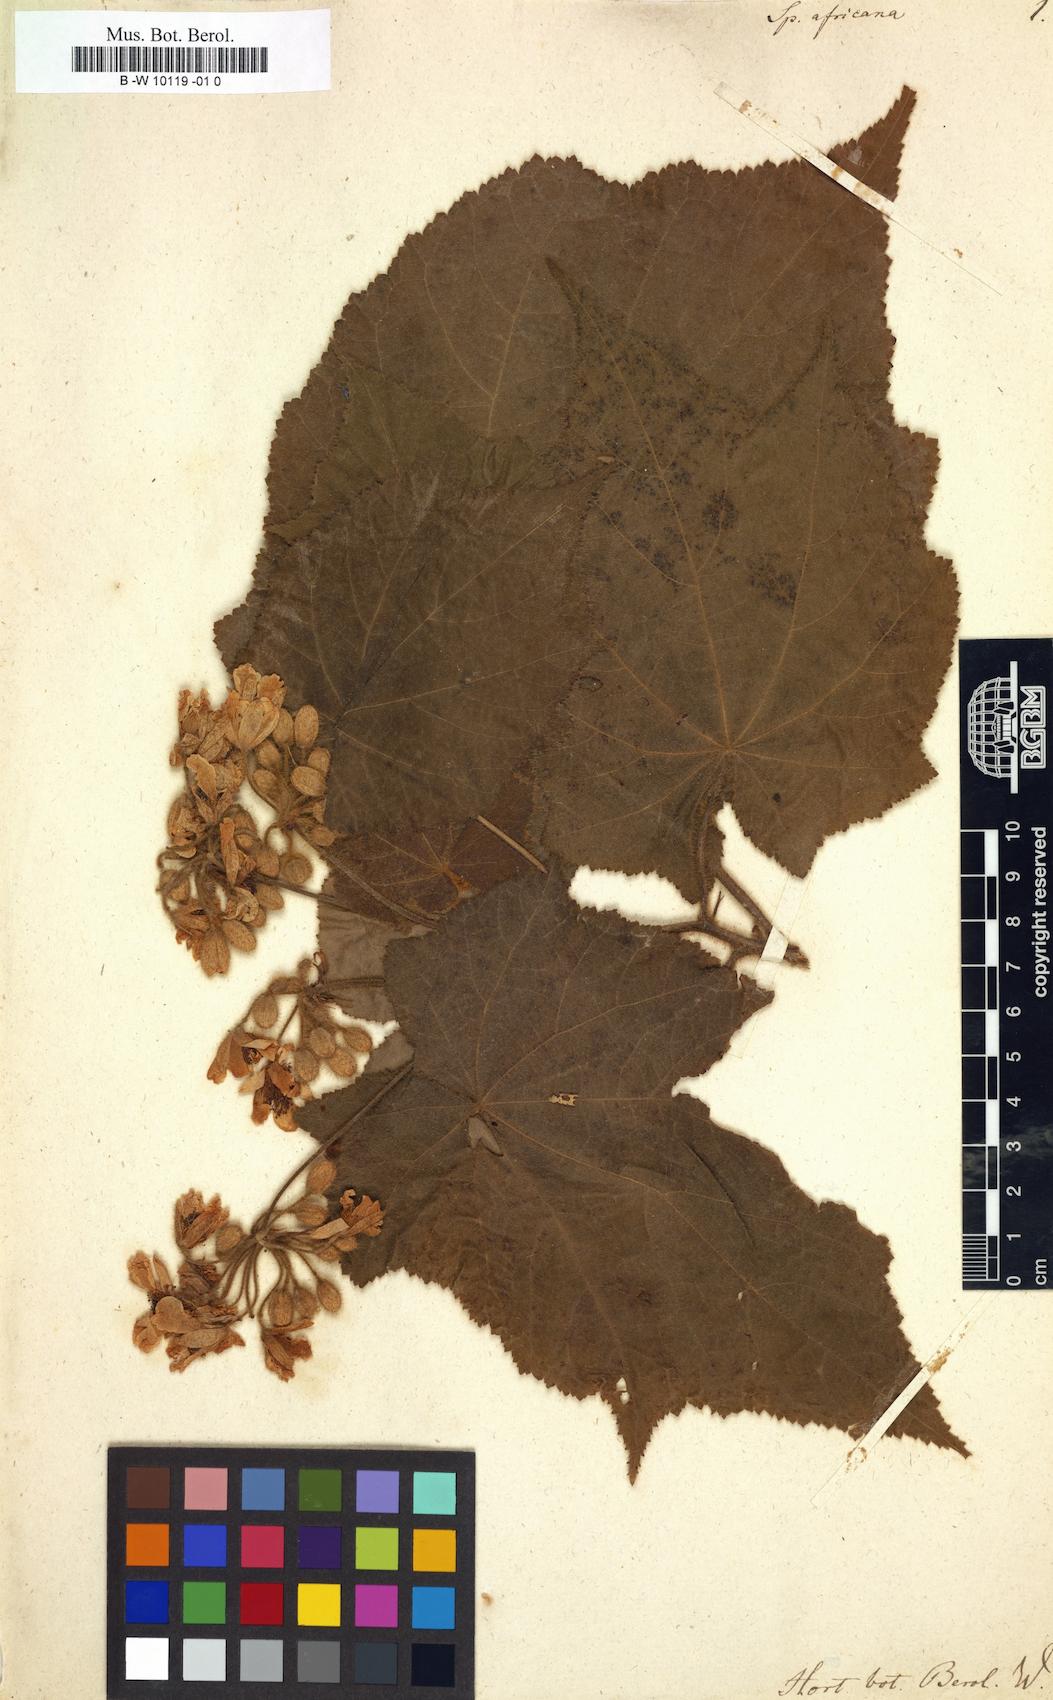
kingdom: Plantae
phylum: Tracheophyta
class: Magnoliopsida
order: Malvales
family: Malvaceae
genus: Sparrmannia
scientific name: Sparrmannia africana
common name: African-hemp
